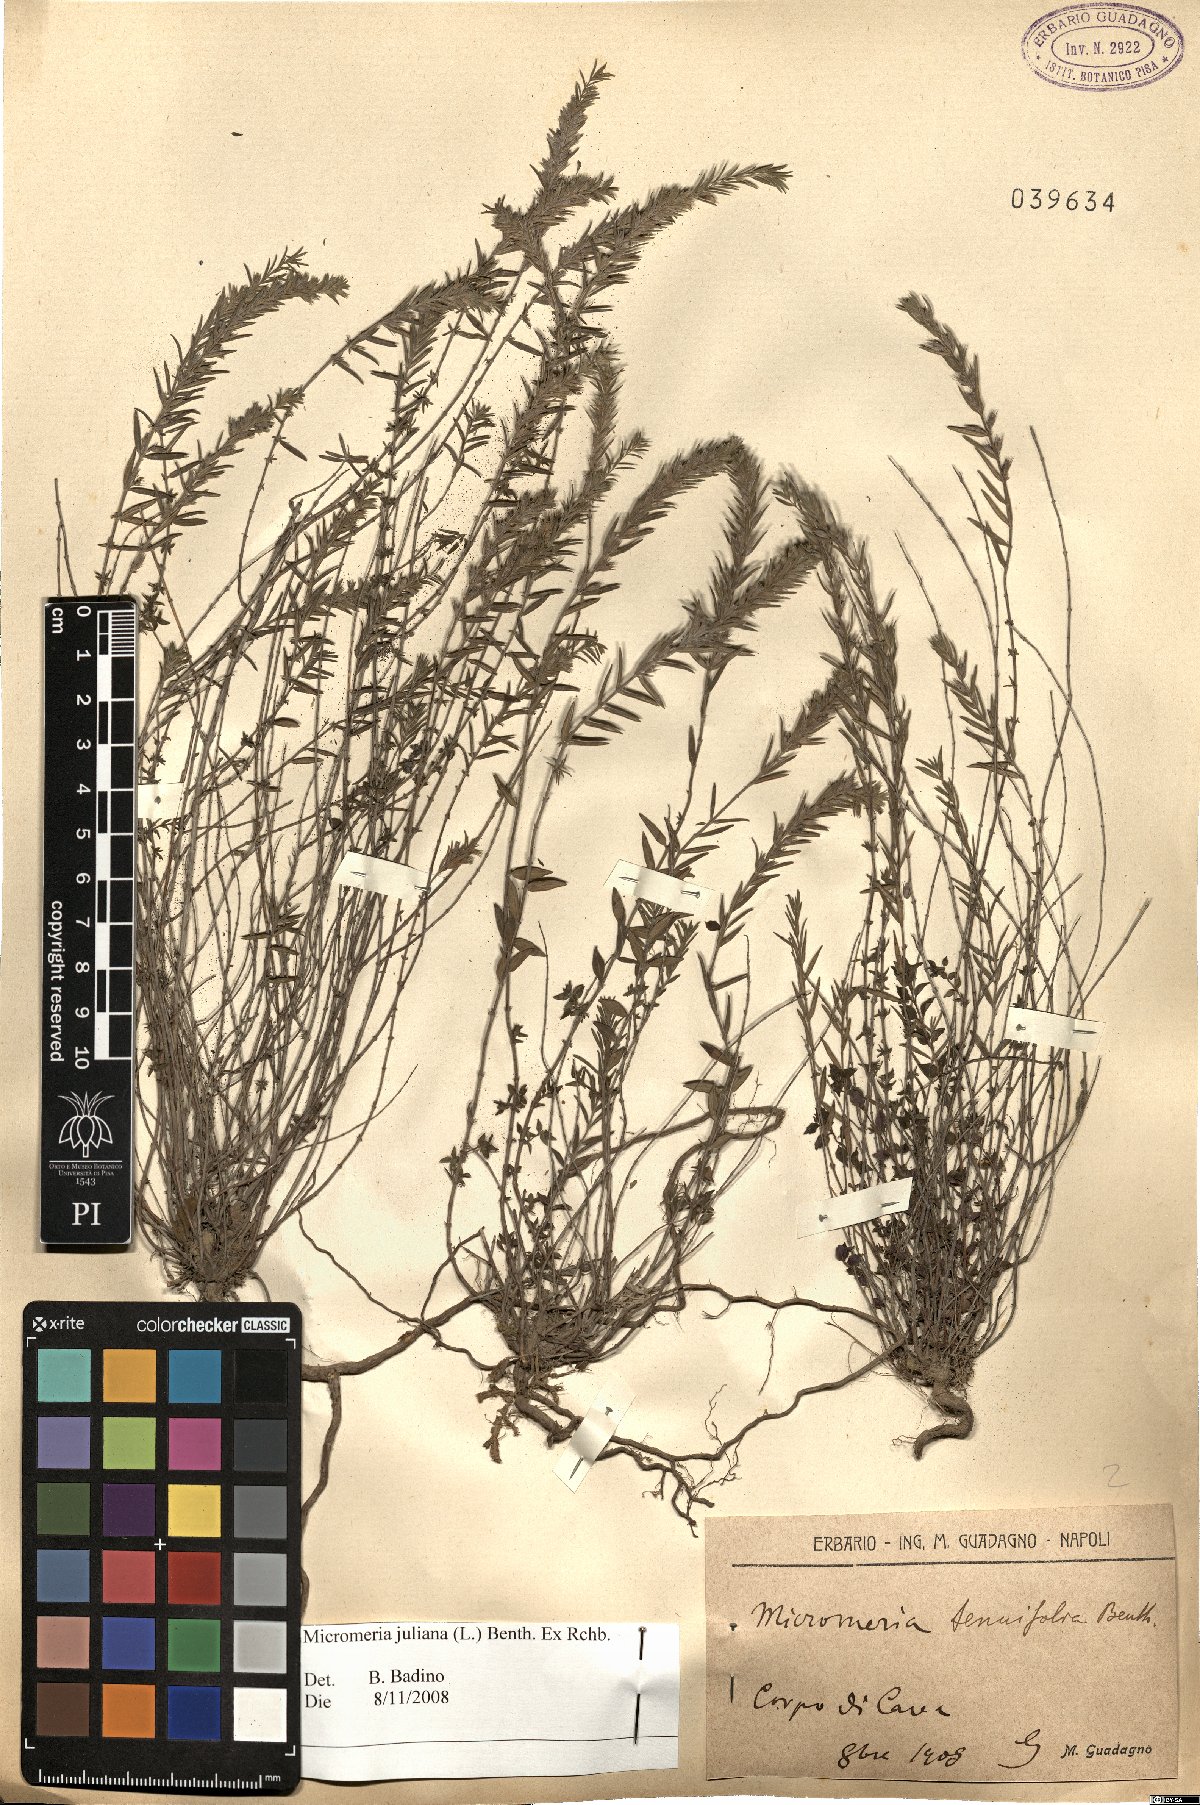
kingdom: Plantae
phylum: Tracheophyta
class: Magnoliopsida
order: Lamiales
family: Lamiaceae
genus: Micromeria
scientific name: Micromeria juliana
